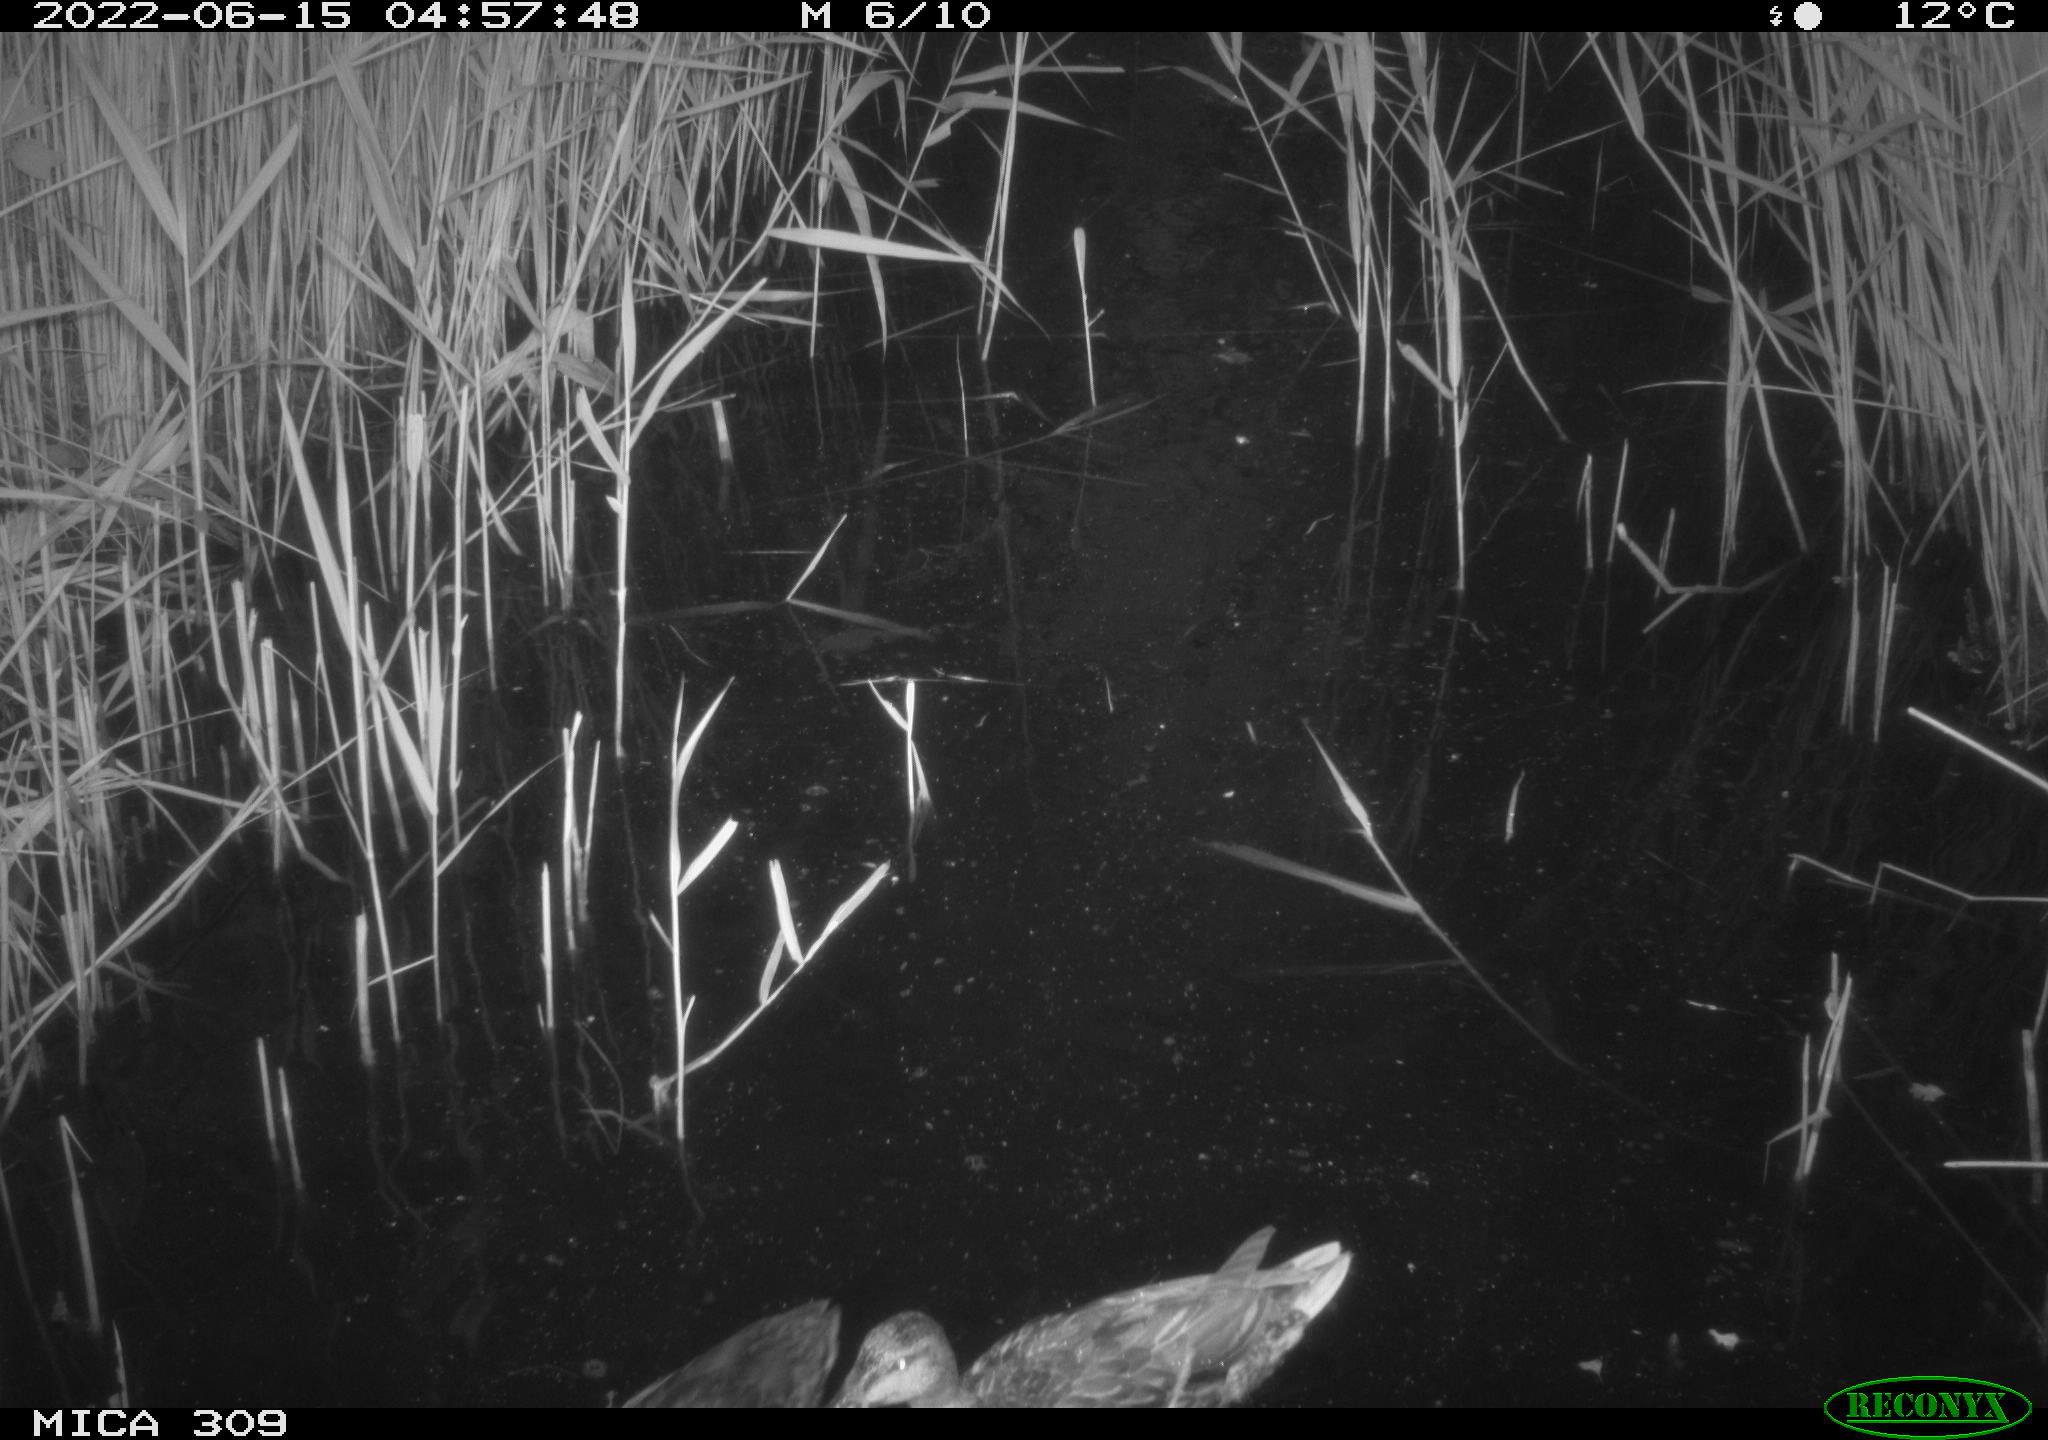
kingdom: Animalia
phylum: Chordata
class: Aves
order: Anseriformes
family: Anatidae
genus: Mareca
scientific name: Mareca strepera
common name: Gadwall
